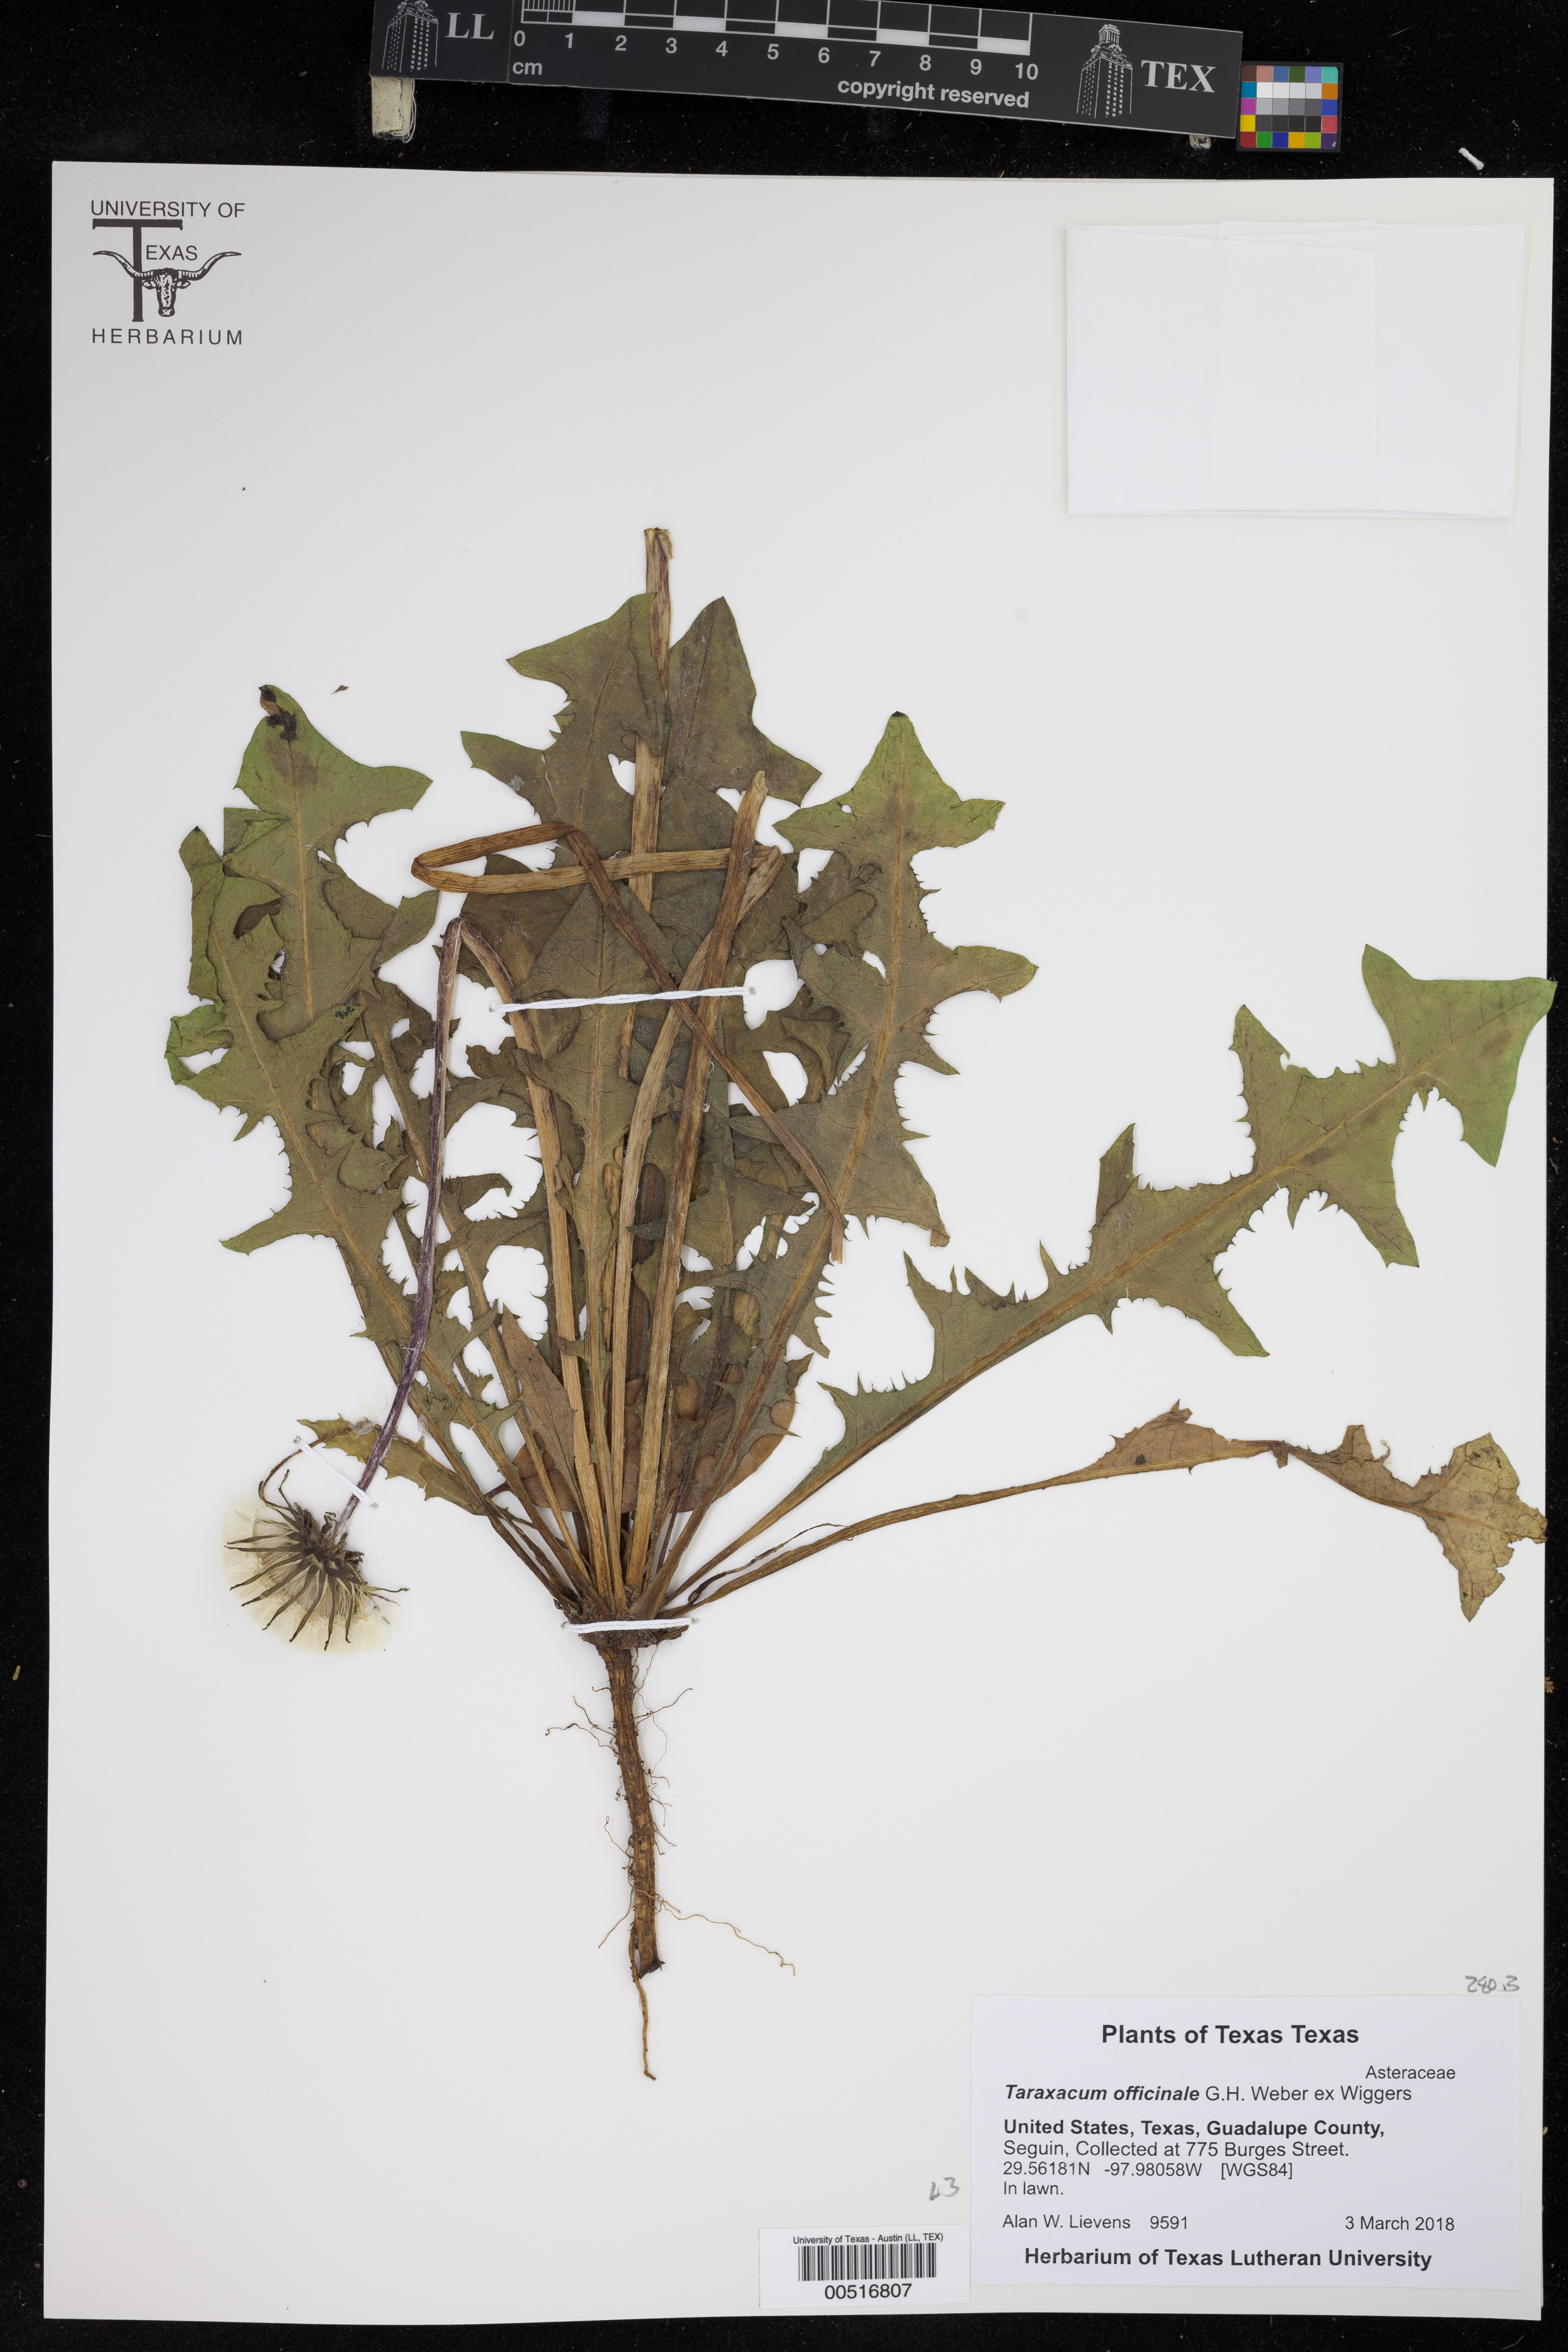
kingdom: Plantae
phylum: Tracheophyta
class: Magnoliopsida
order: Asterales
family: Asteraceae
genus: Taraxacum
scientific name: Taraxacum officinale
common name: Common dandelion
